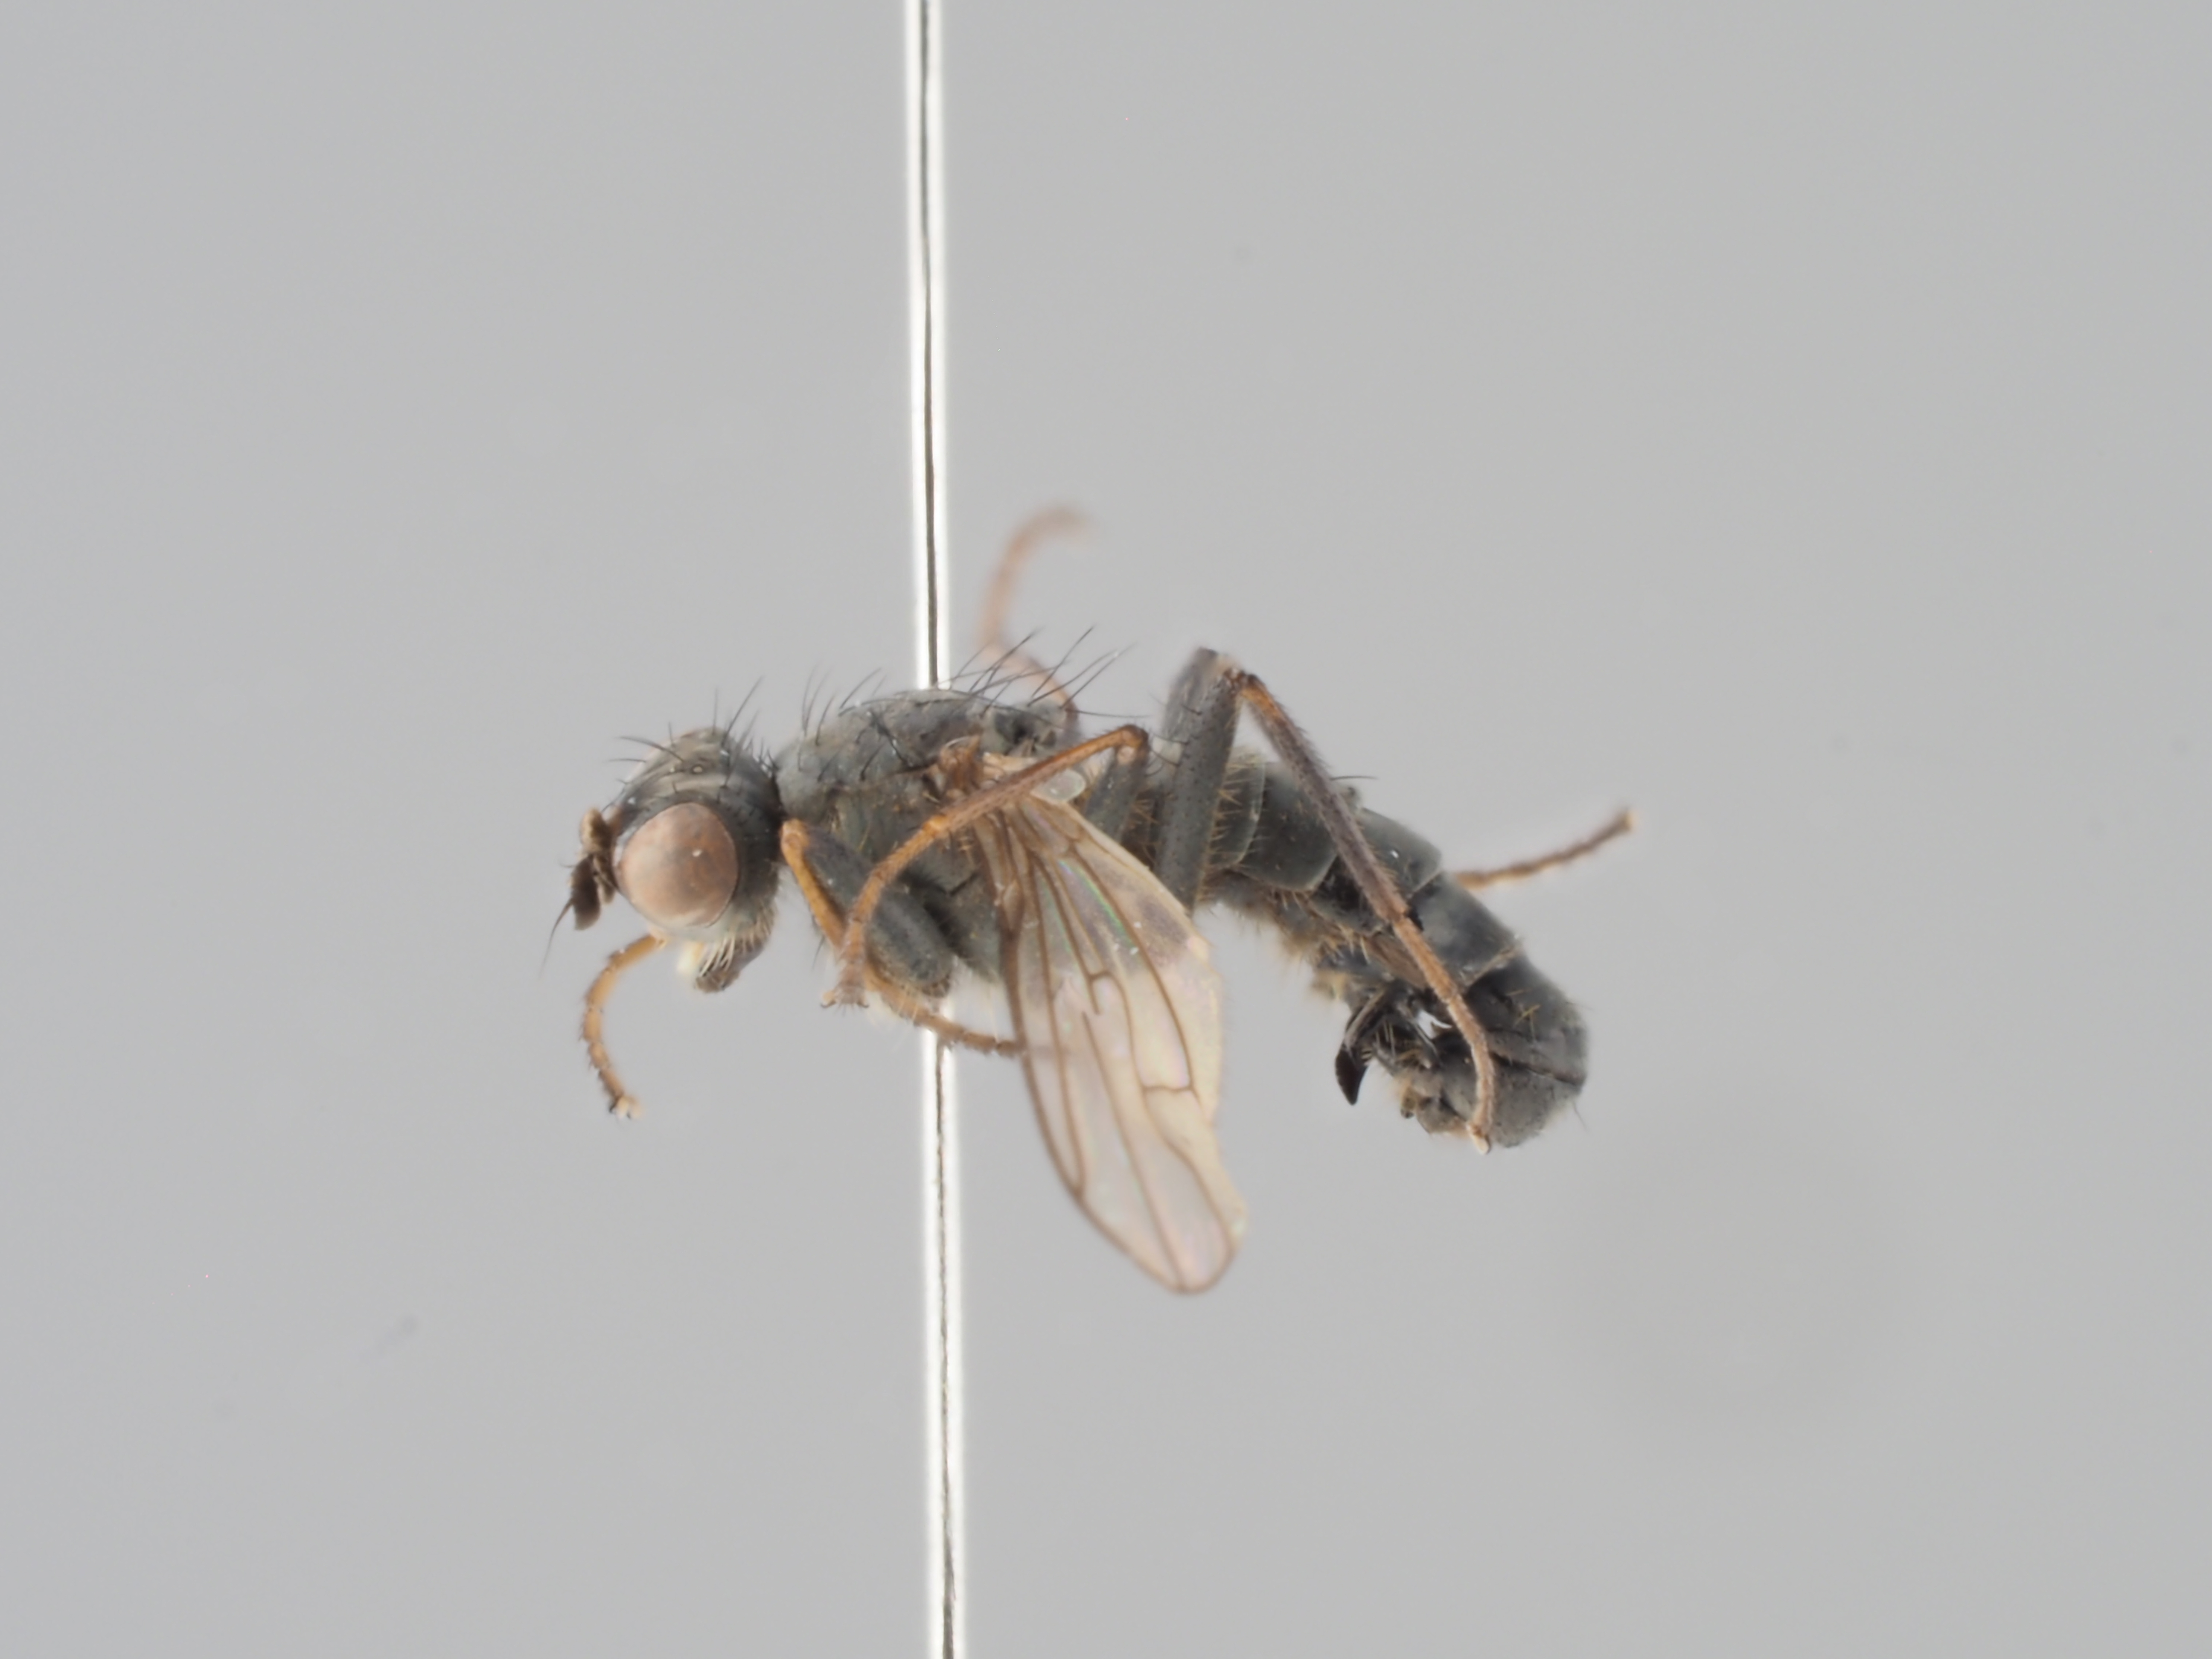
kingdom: Animalia
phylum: Arthropoda
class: Insecta
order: Diptera
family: Scathophagidae
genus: Allomyella
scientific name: Allomyella frigida
